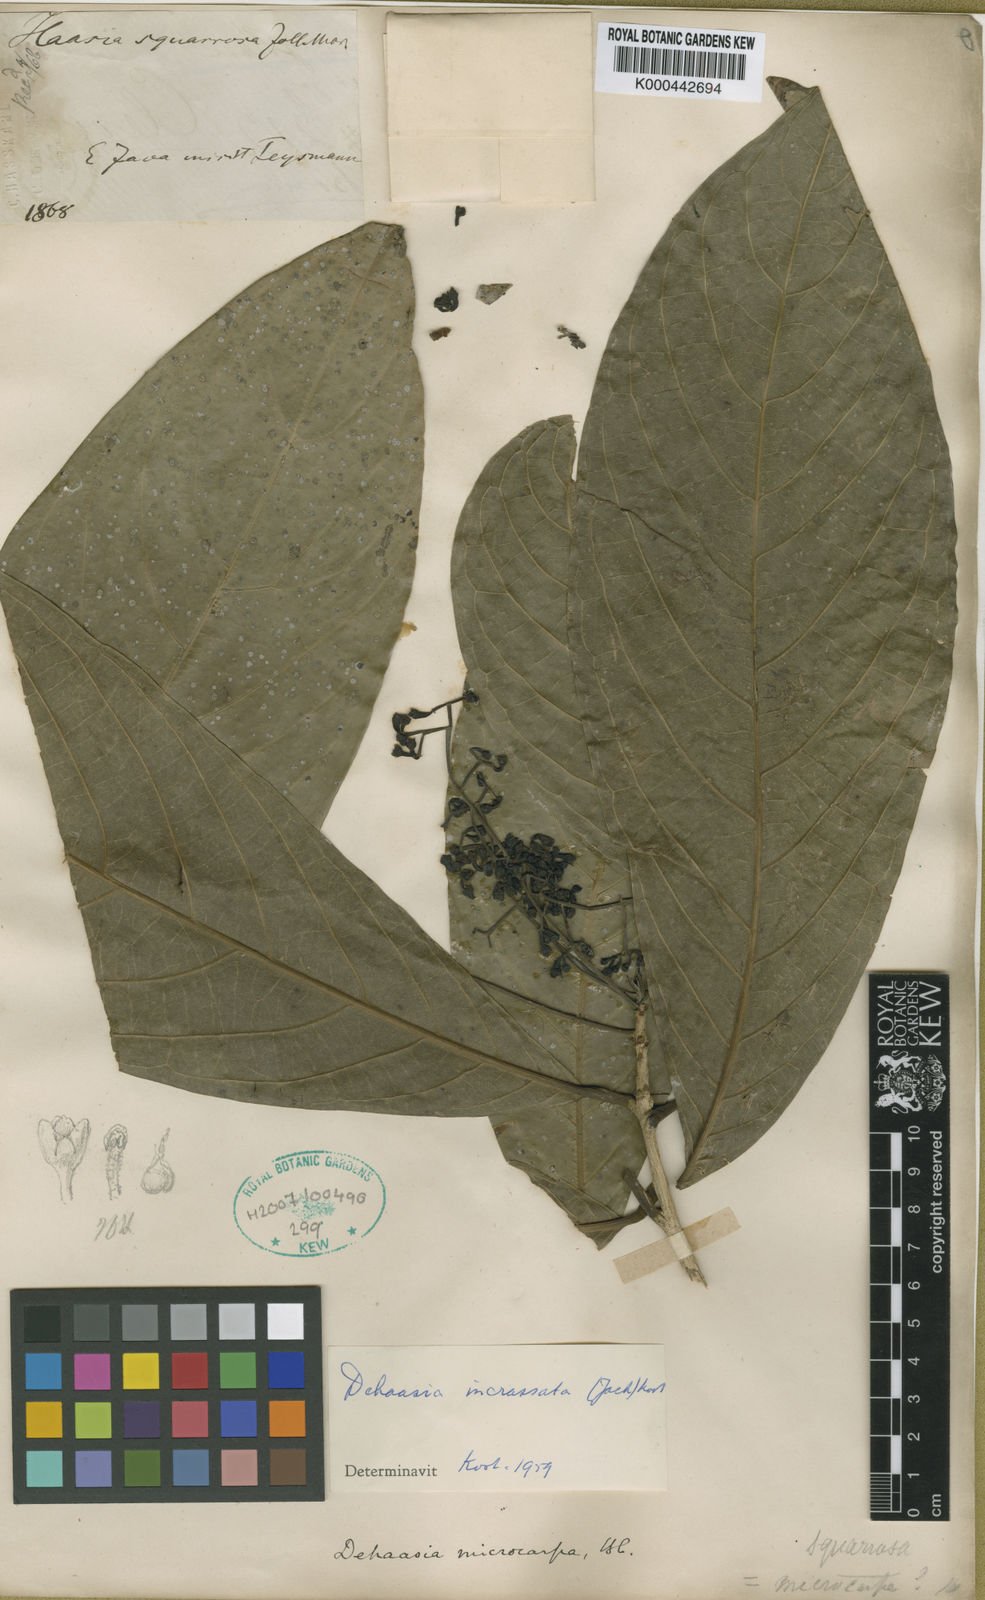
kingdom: Plantae
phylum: Tracheophyta
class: Magnoliopsida
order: Laurales
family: Lauraceae
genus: Dehaasia
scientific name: Dehaasia
